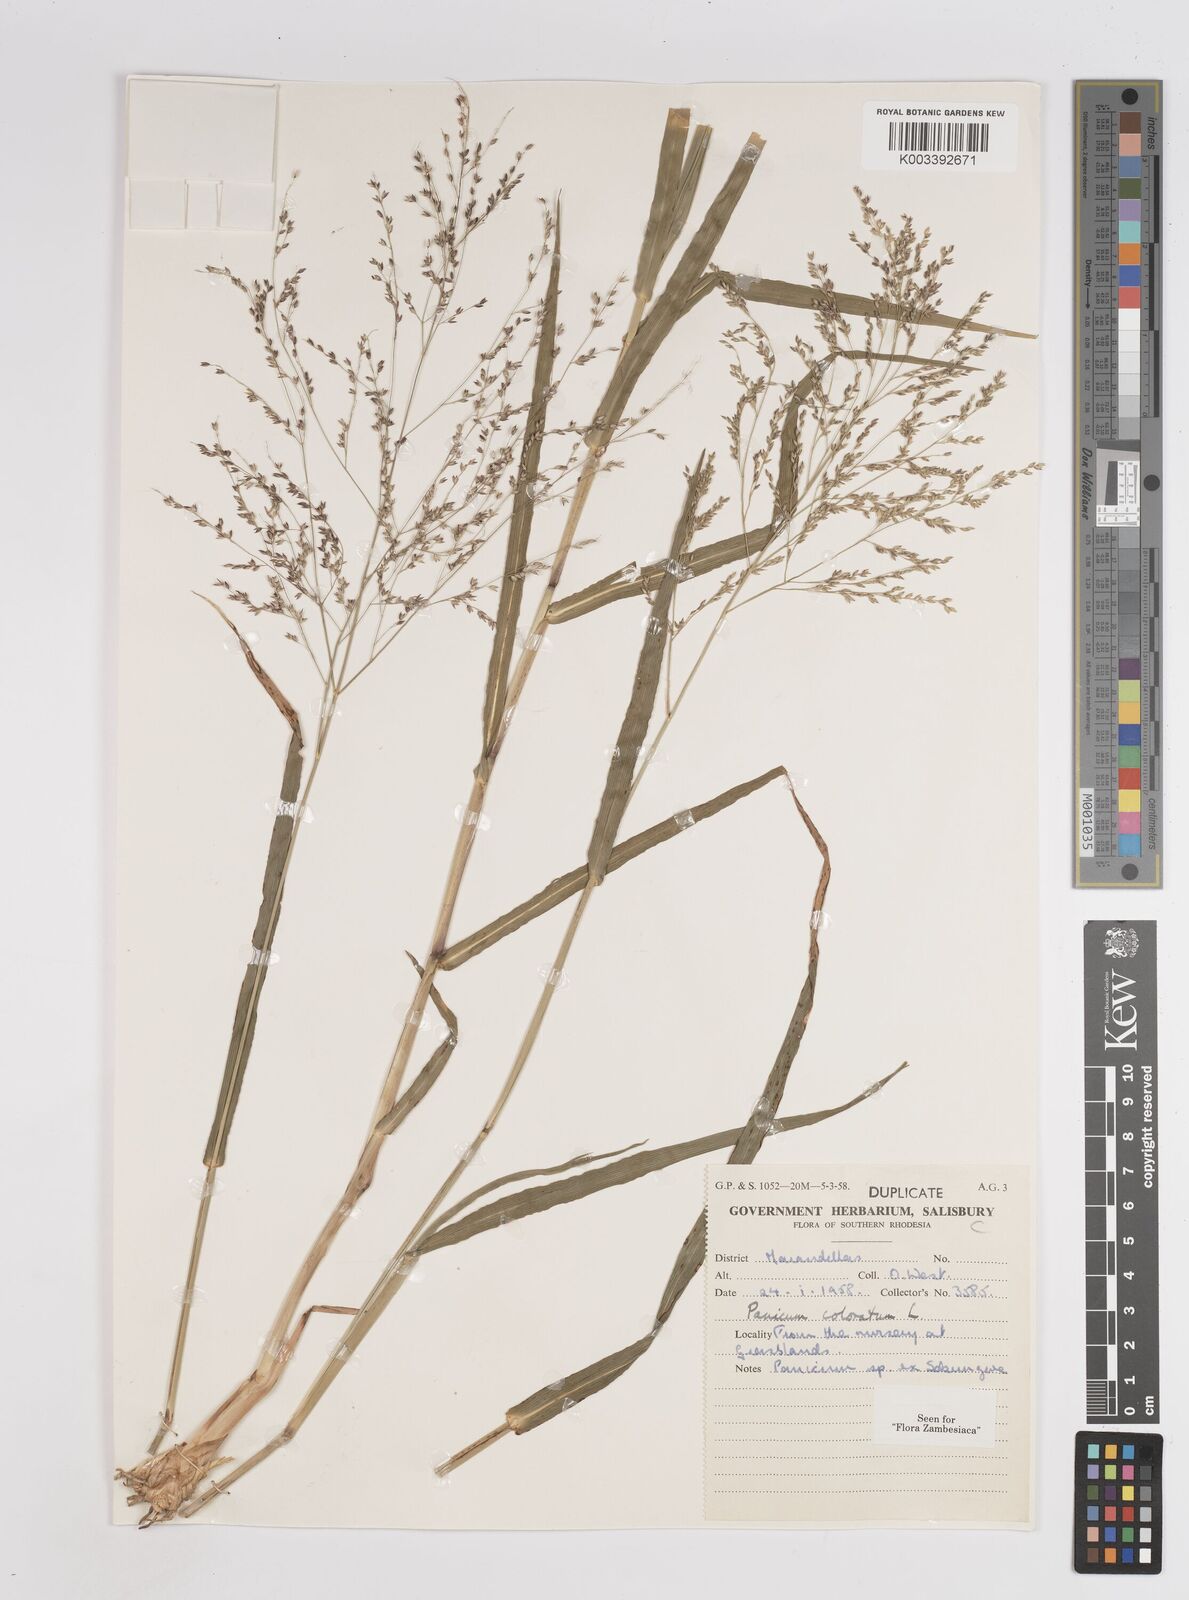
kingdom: Plantae
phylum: Tracheophyta
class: Liliopsida
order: Poales
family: Poaceae
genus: Panicum
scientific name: Panicum coloratum
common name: Kleingrass
